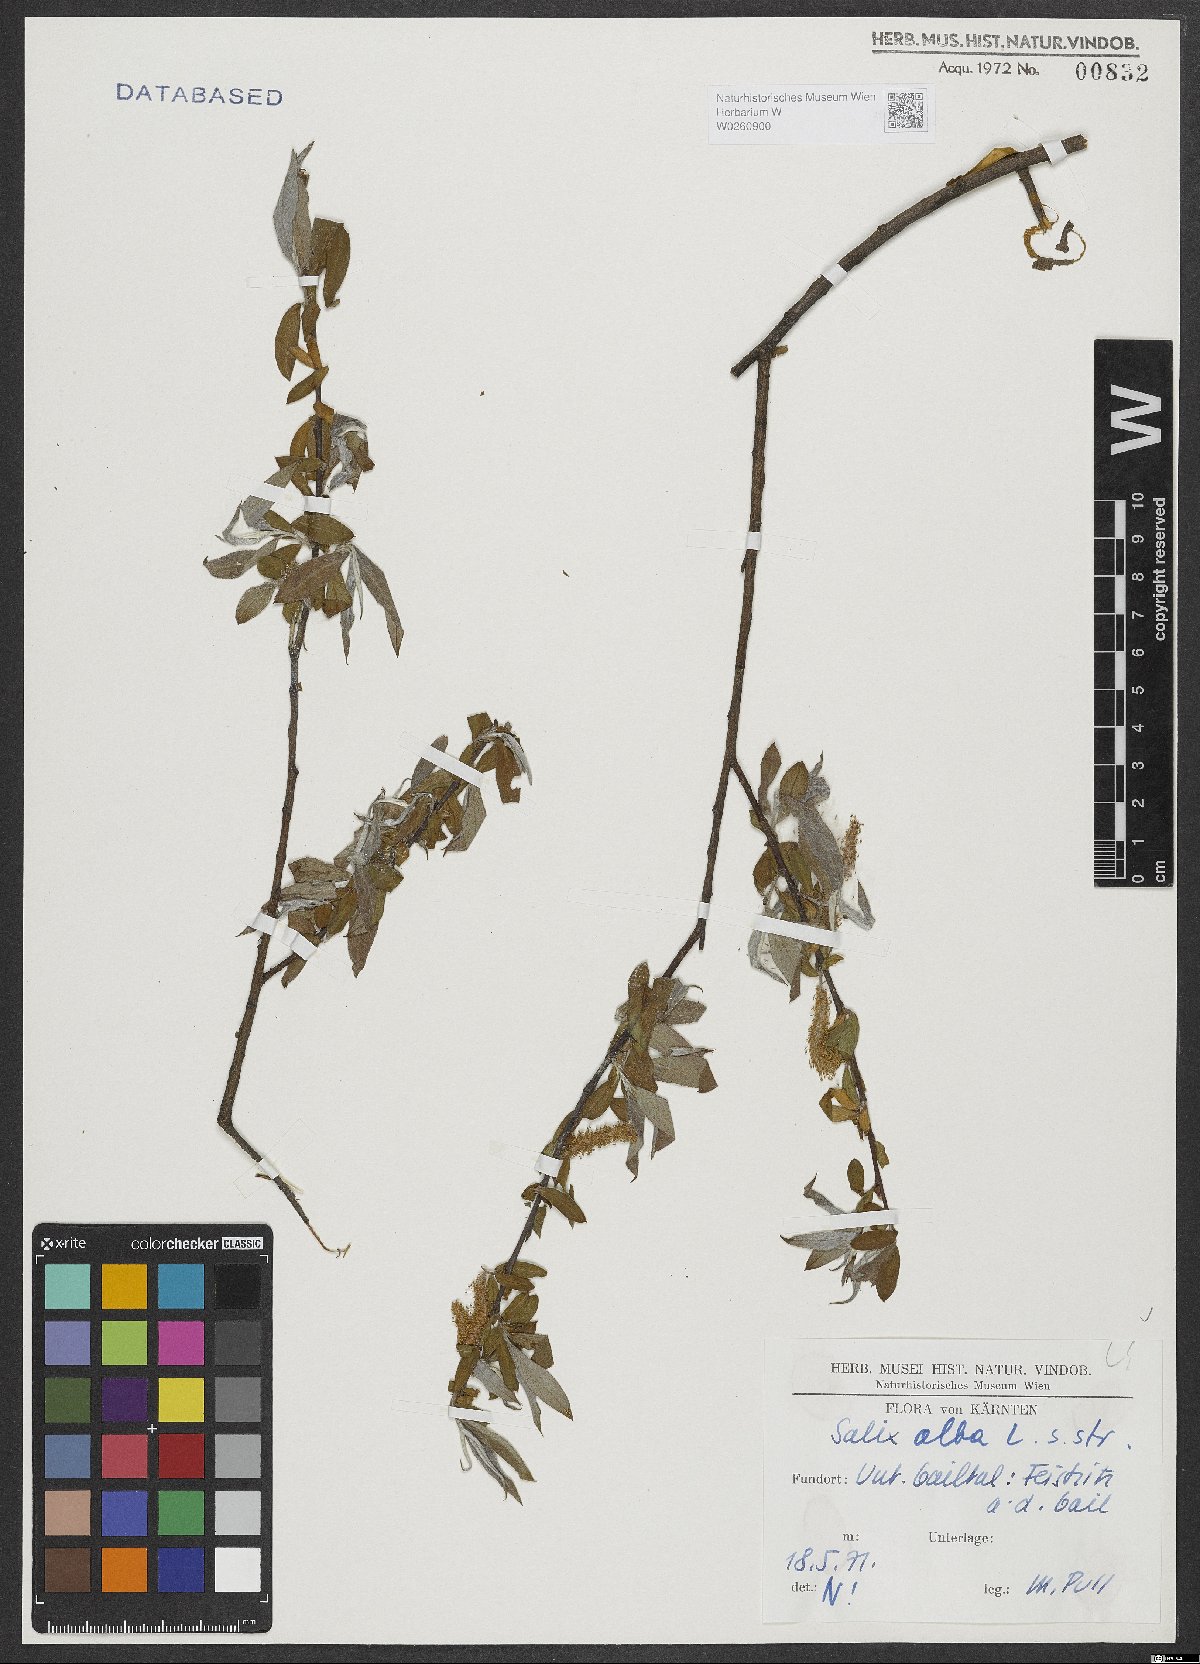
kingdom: Plantae
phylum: Tracheophyta
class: Magnoliopsida
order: Malpighiales
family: Salicaceae
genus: Salix
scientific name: Salix alba
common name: White willow
